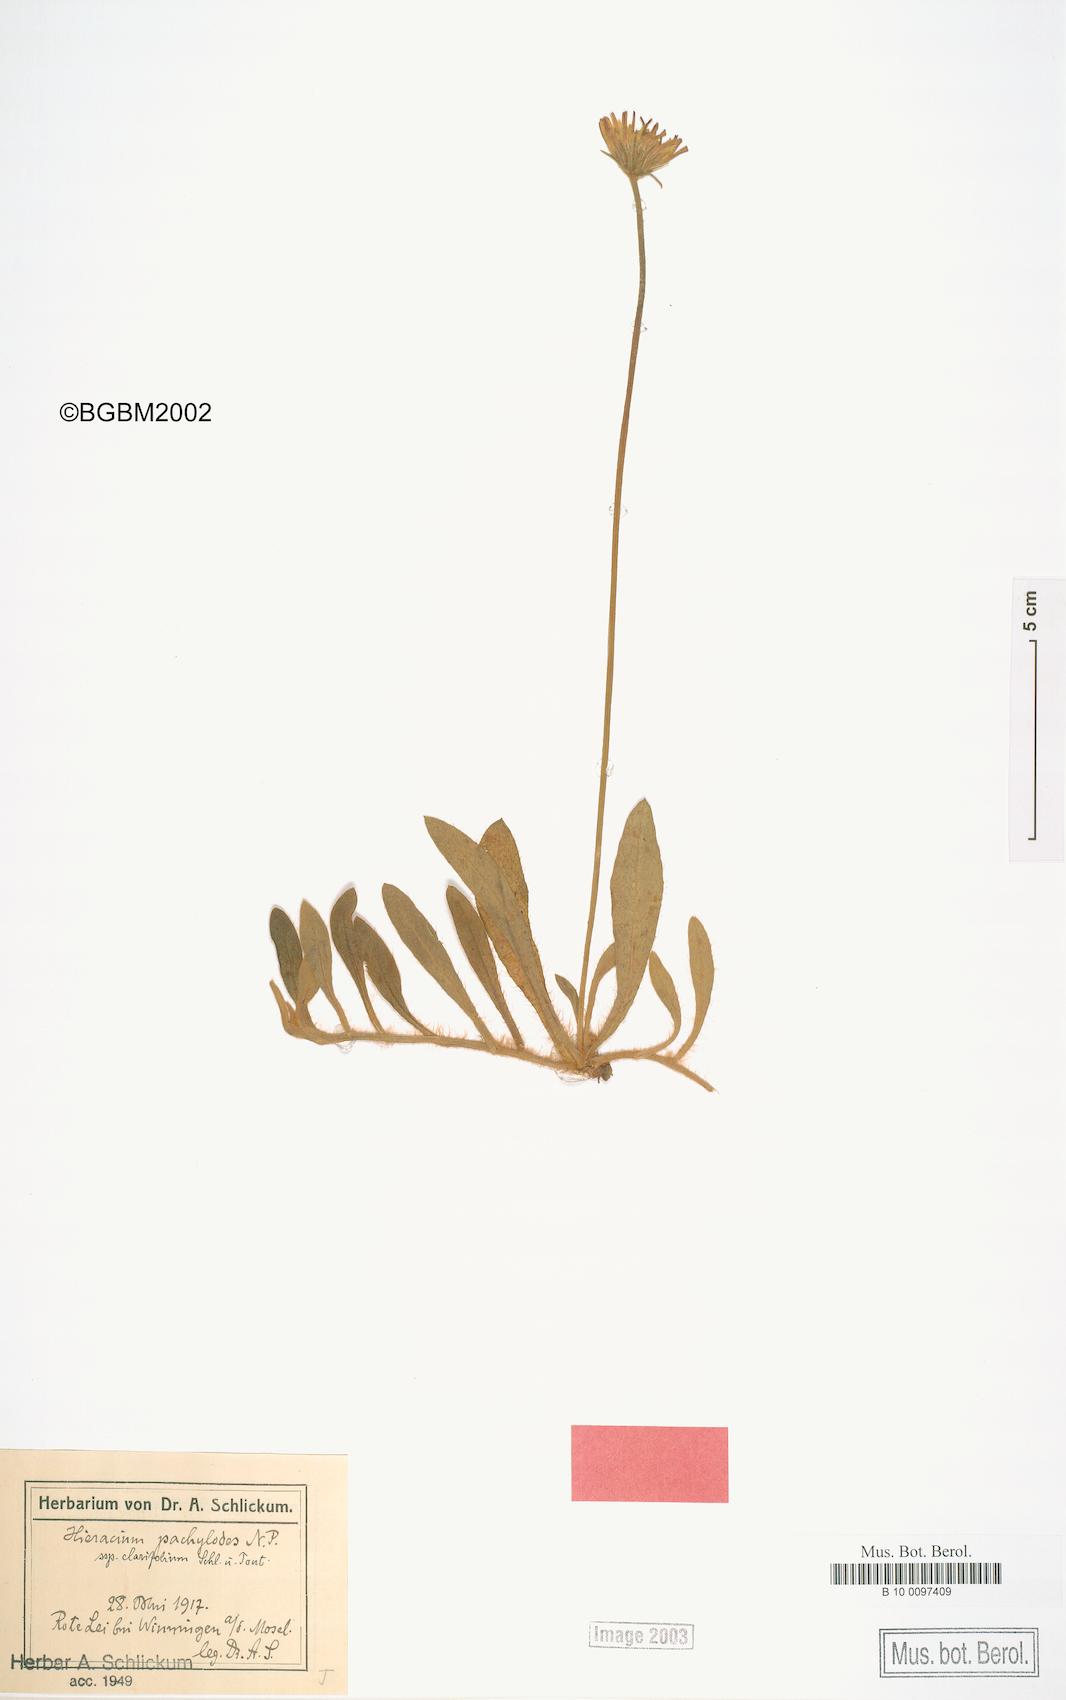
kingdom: Plantae
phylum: Tracheophyta
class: Magnoliopsida
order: Asterales
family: Asteraceae
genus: Pilosella
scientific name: Pilosella longisquama
